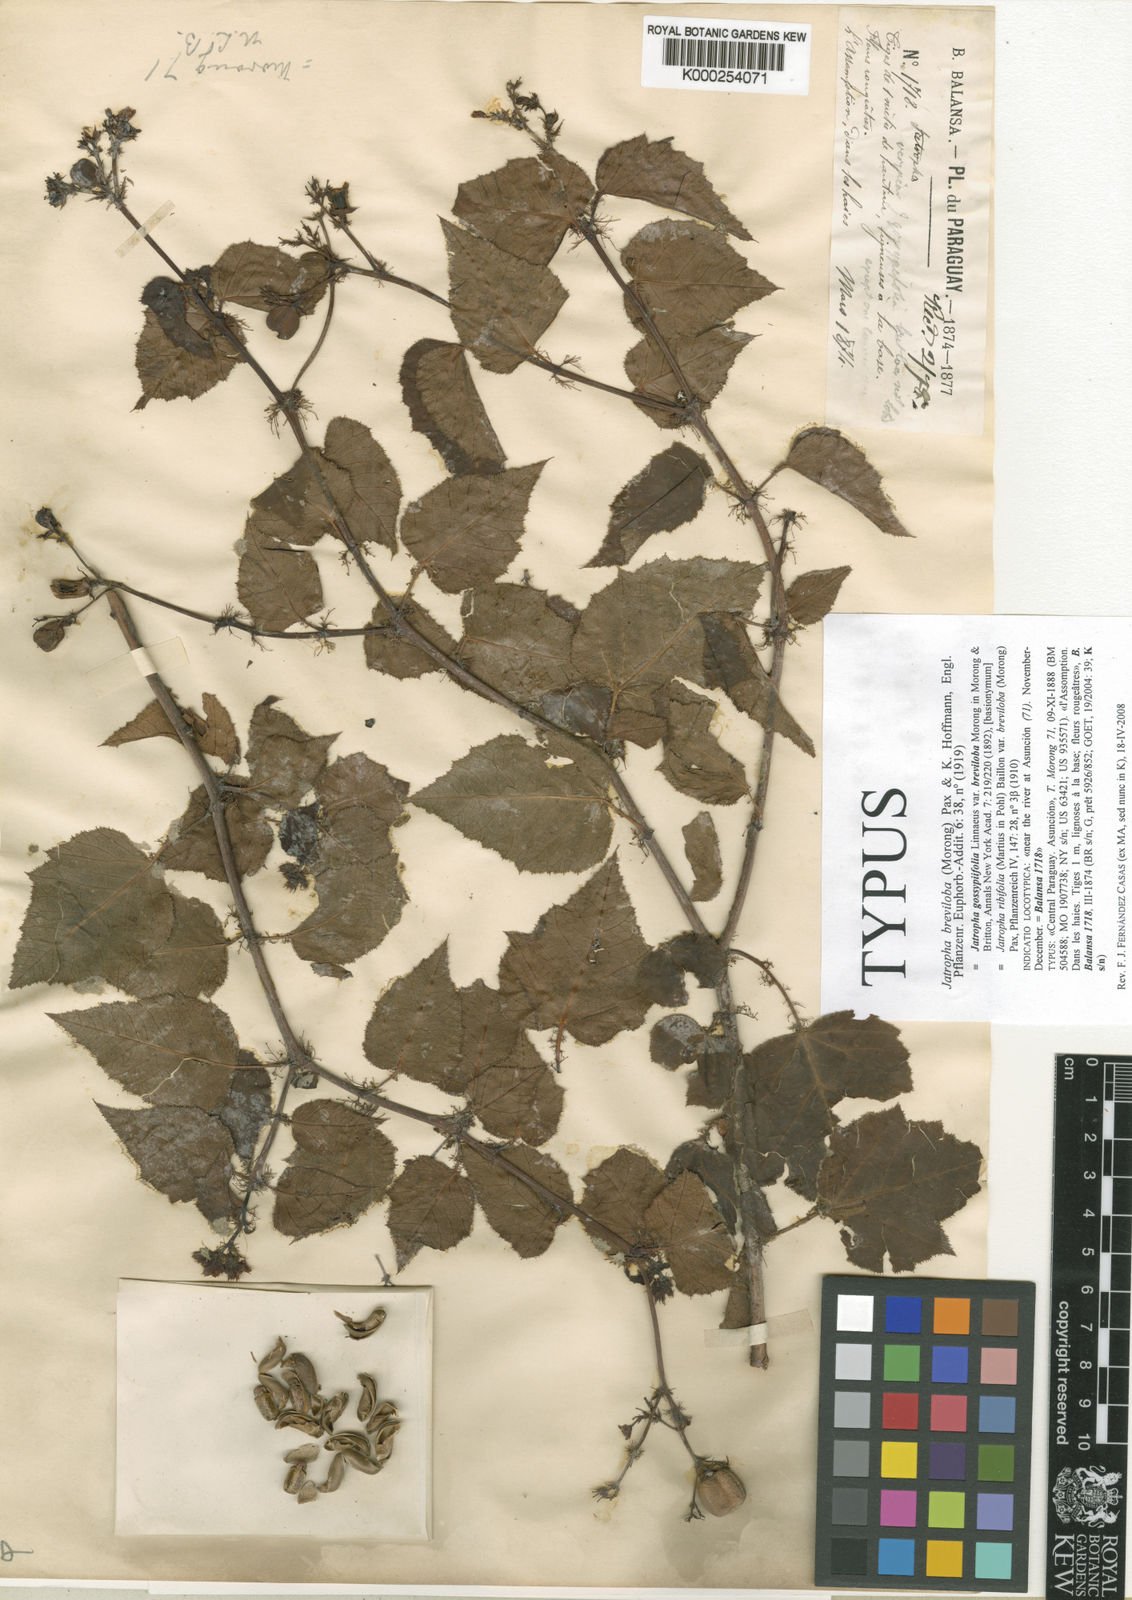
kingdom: Plantae
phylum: Tracheophyta
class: Magnoliopsida
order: Malpighiales
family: Euphorbiaceae
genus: Jatropha
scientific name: Jatropha breviloba
